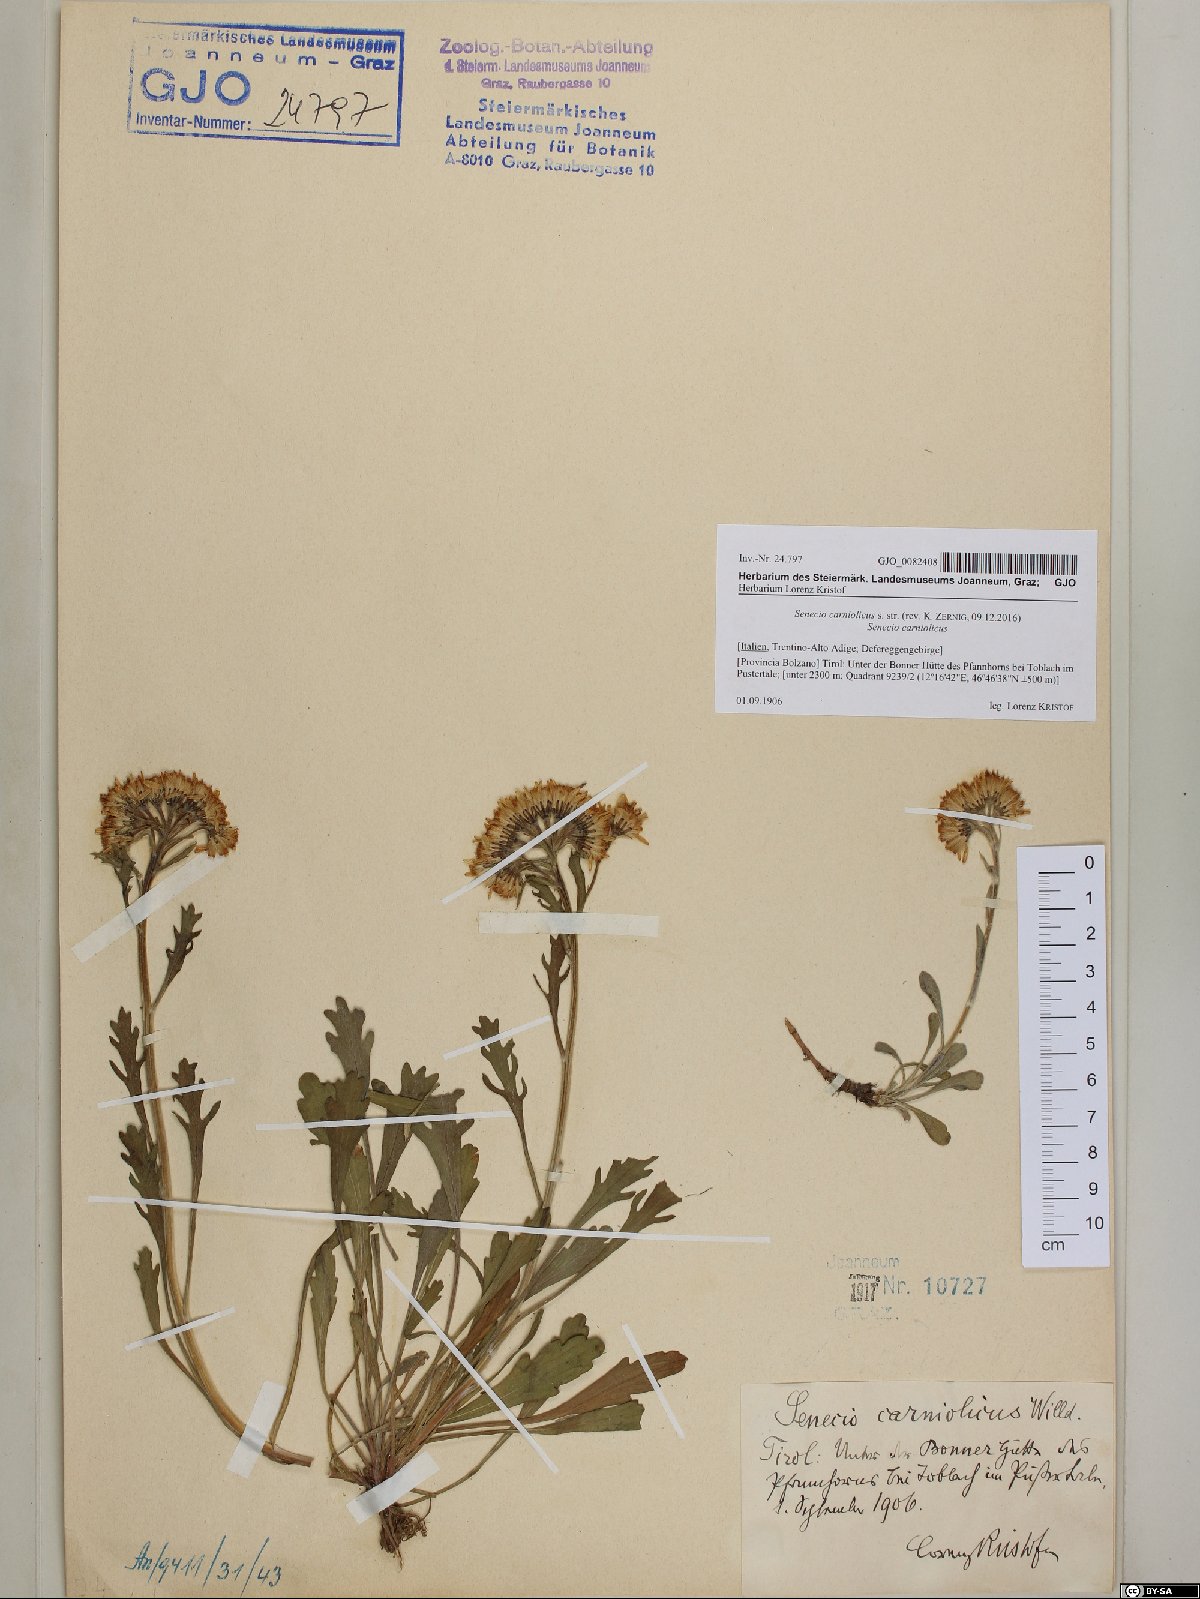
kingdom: Plantae
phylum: Tracheophyta
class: Magnoliopsida
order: Asterales
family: Asteraceae
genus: Jacobaea
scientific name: Jacobaea carniolica
